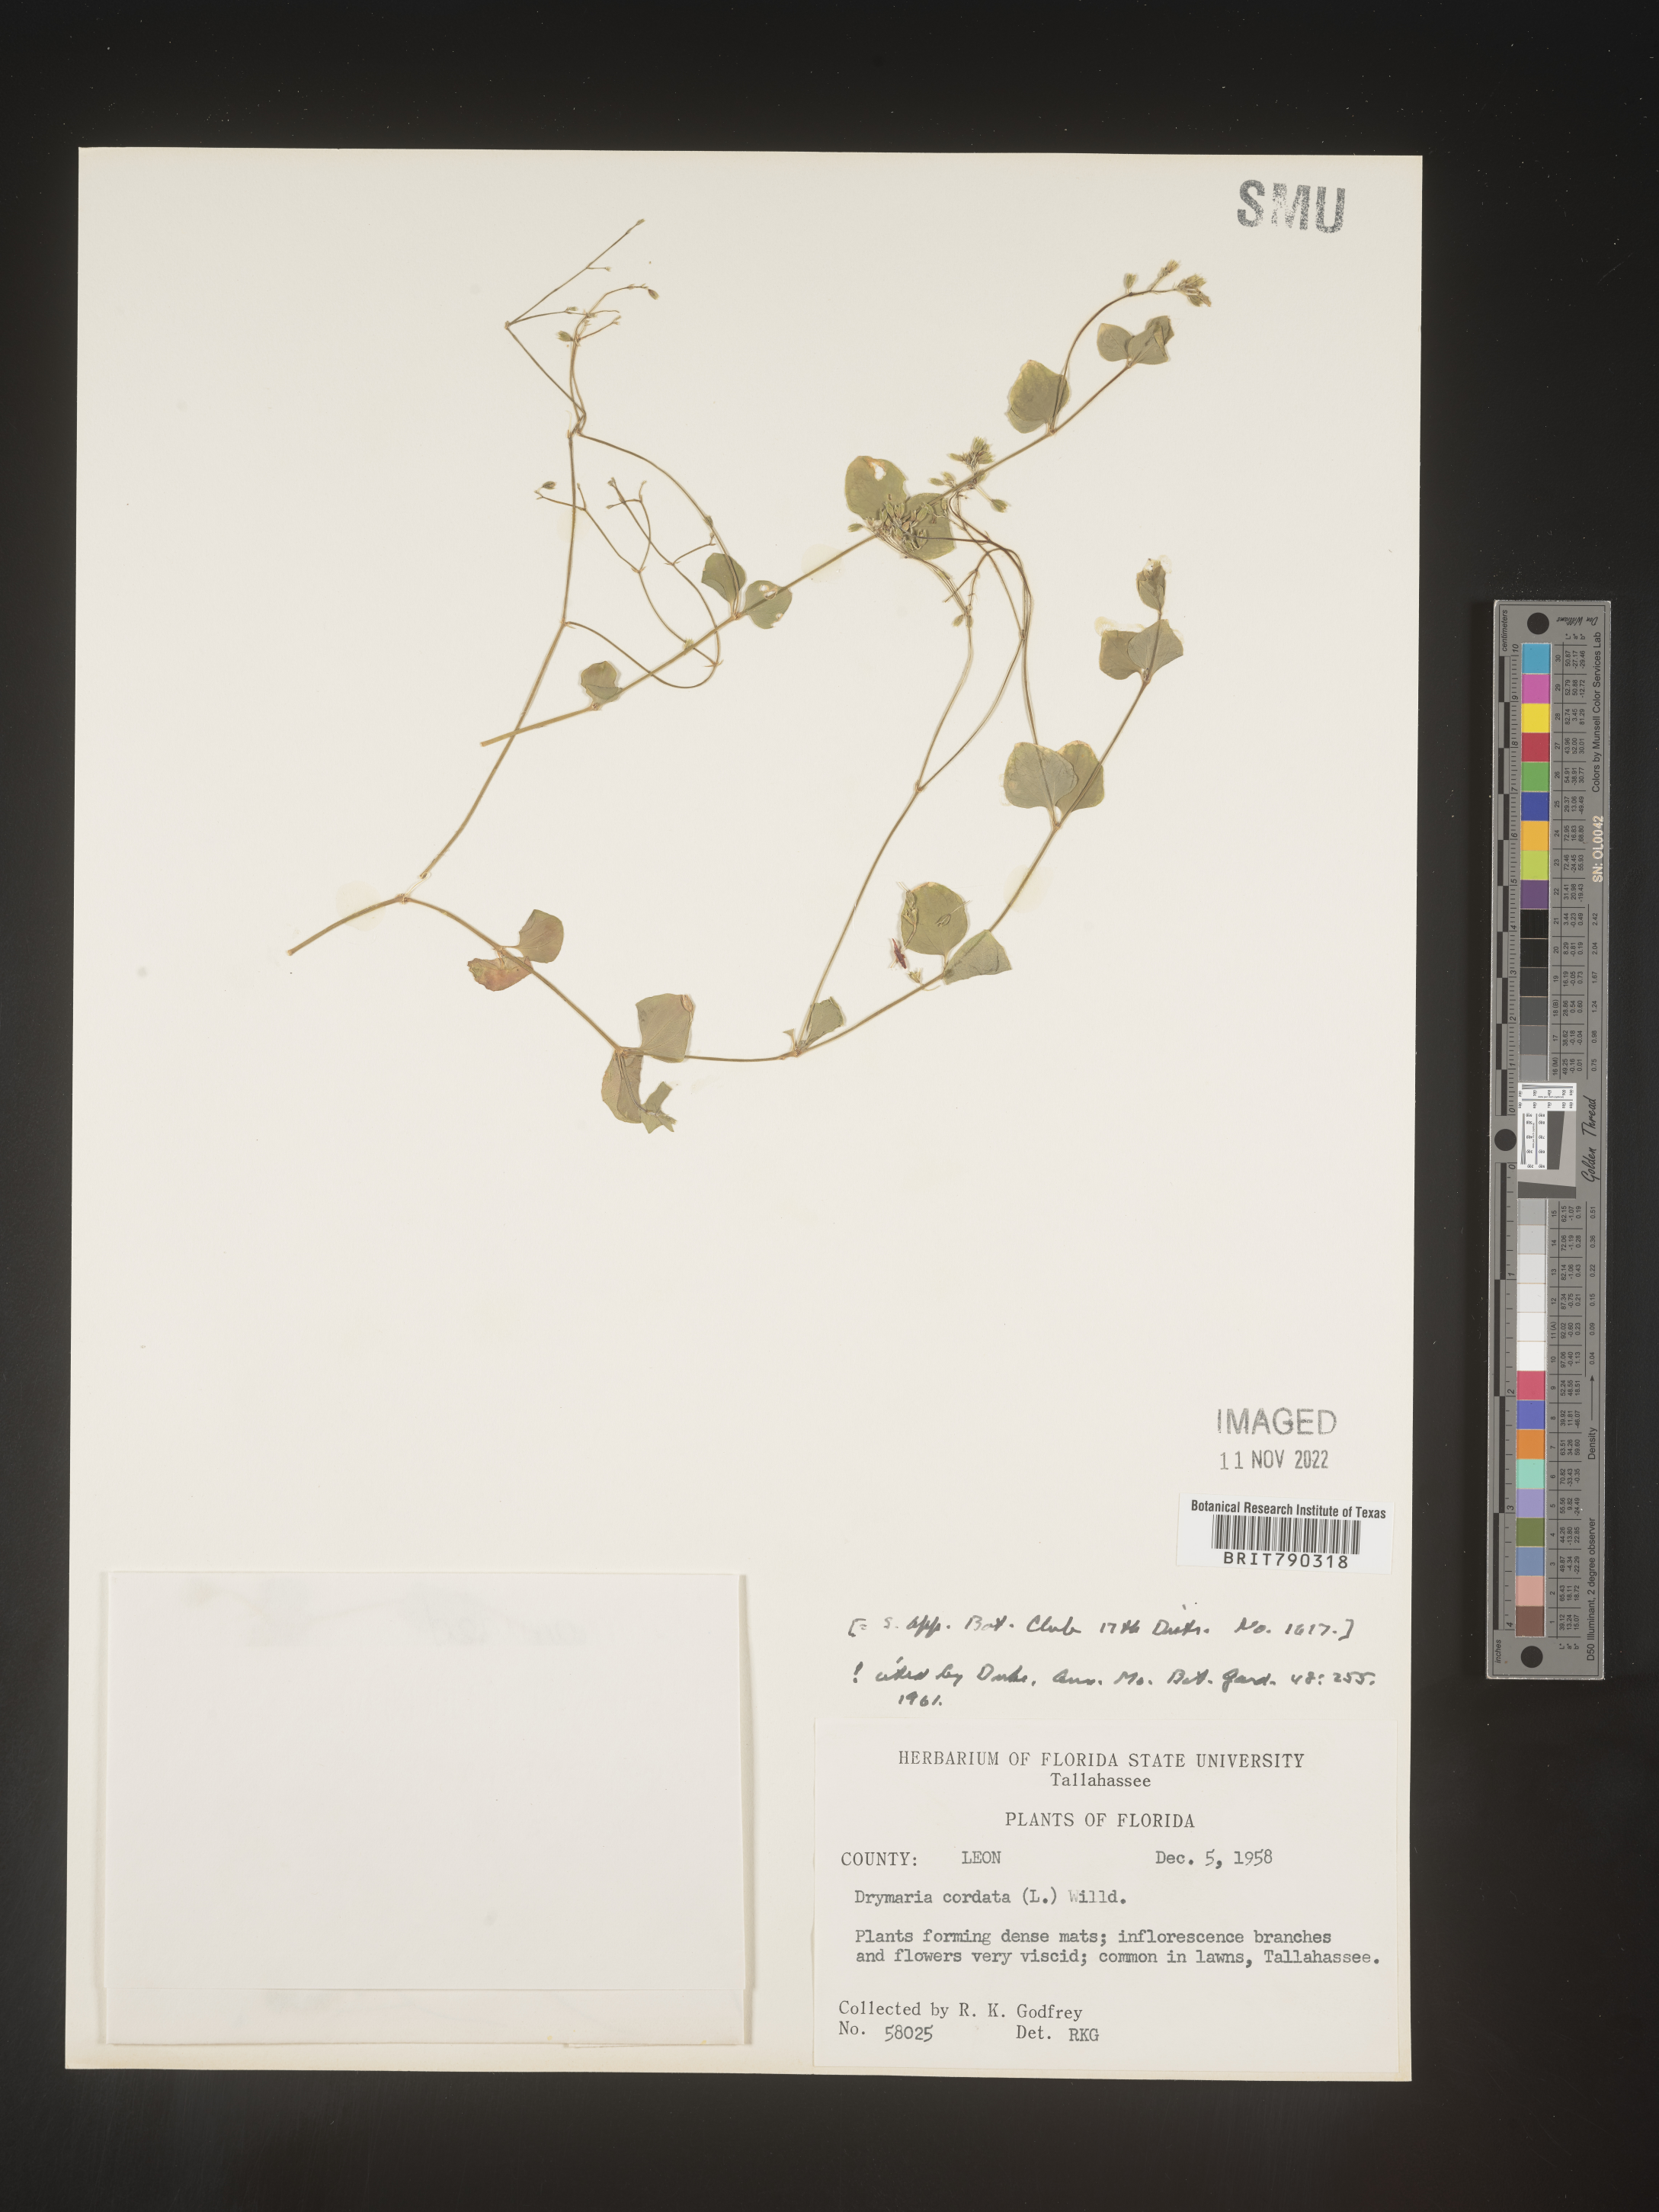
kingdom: Plantae
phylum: Tracheophyta
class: Magnoliopsida
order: Caryophyllales
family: Caryophyllaceae
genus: Drymaria
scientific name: Drymaria
